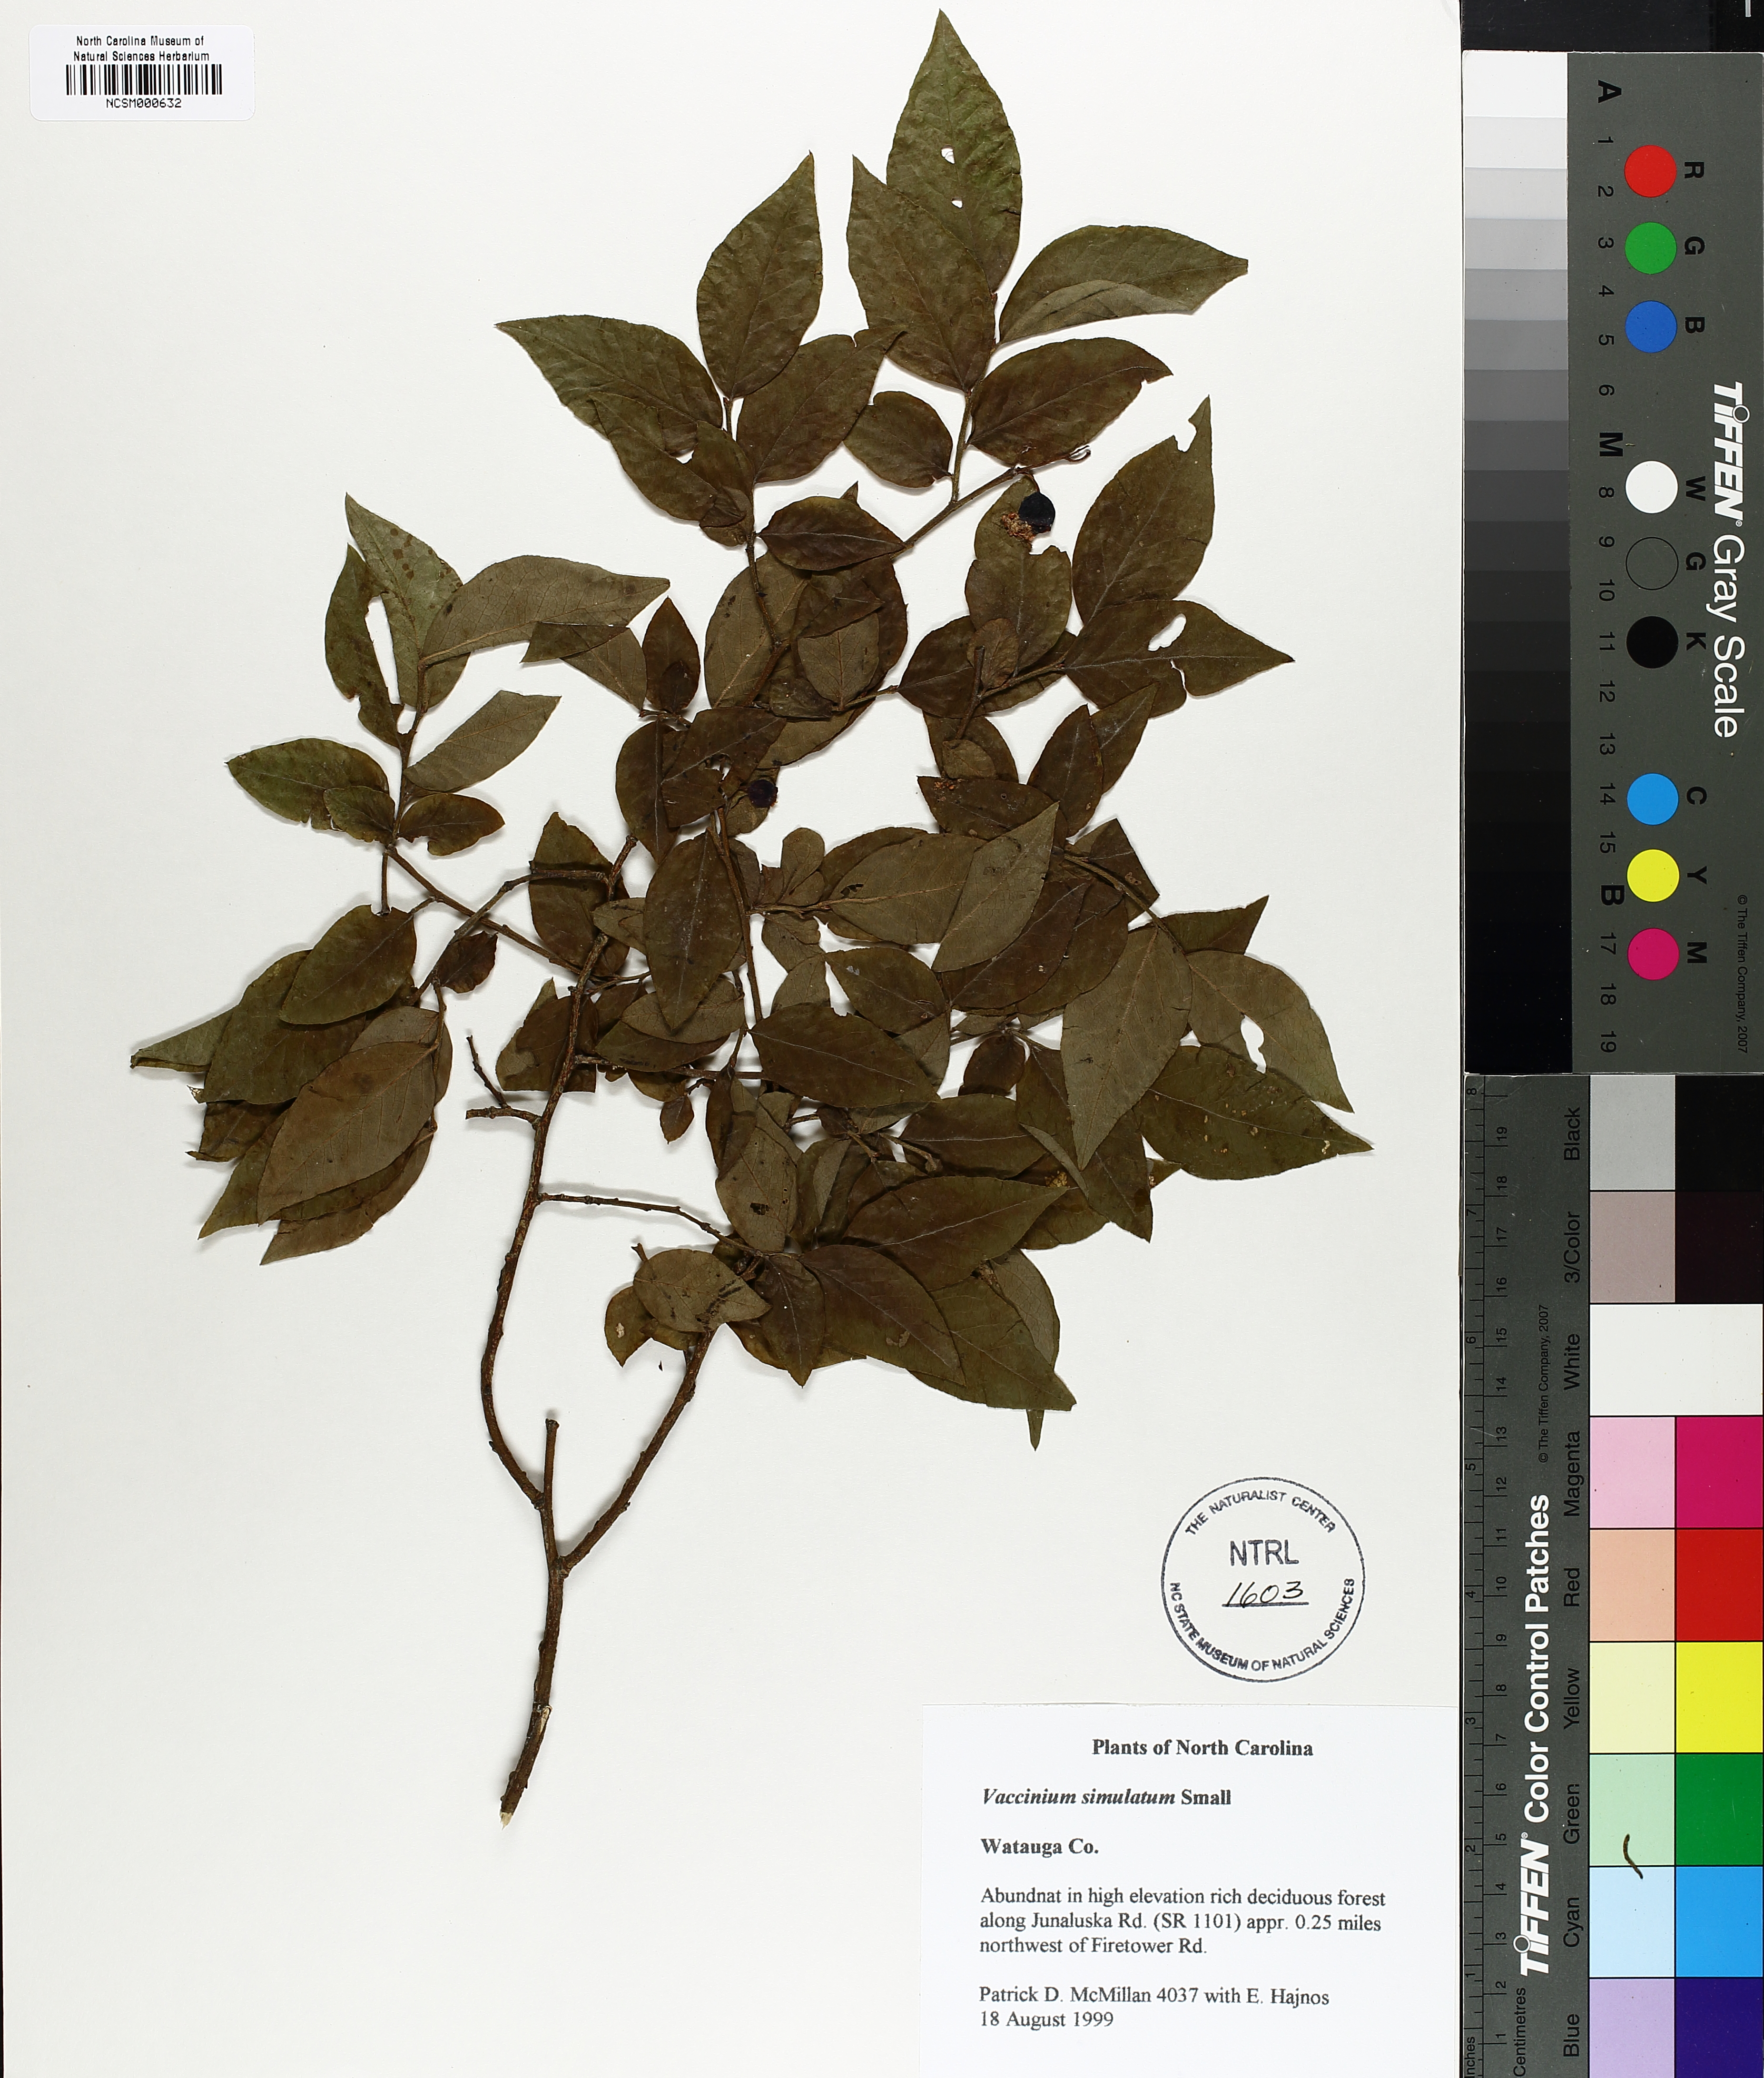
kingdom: Plantae
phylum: Tracheophyta
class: Magnoliopsida
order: Ericales
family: Ericaceae
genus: Vaccinium
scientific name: Vaccinium corymbosum
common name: Blueberry
